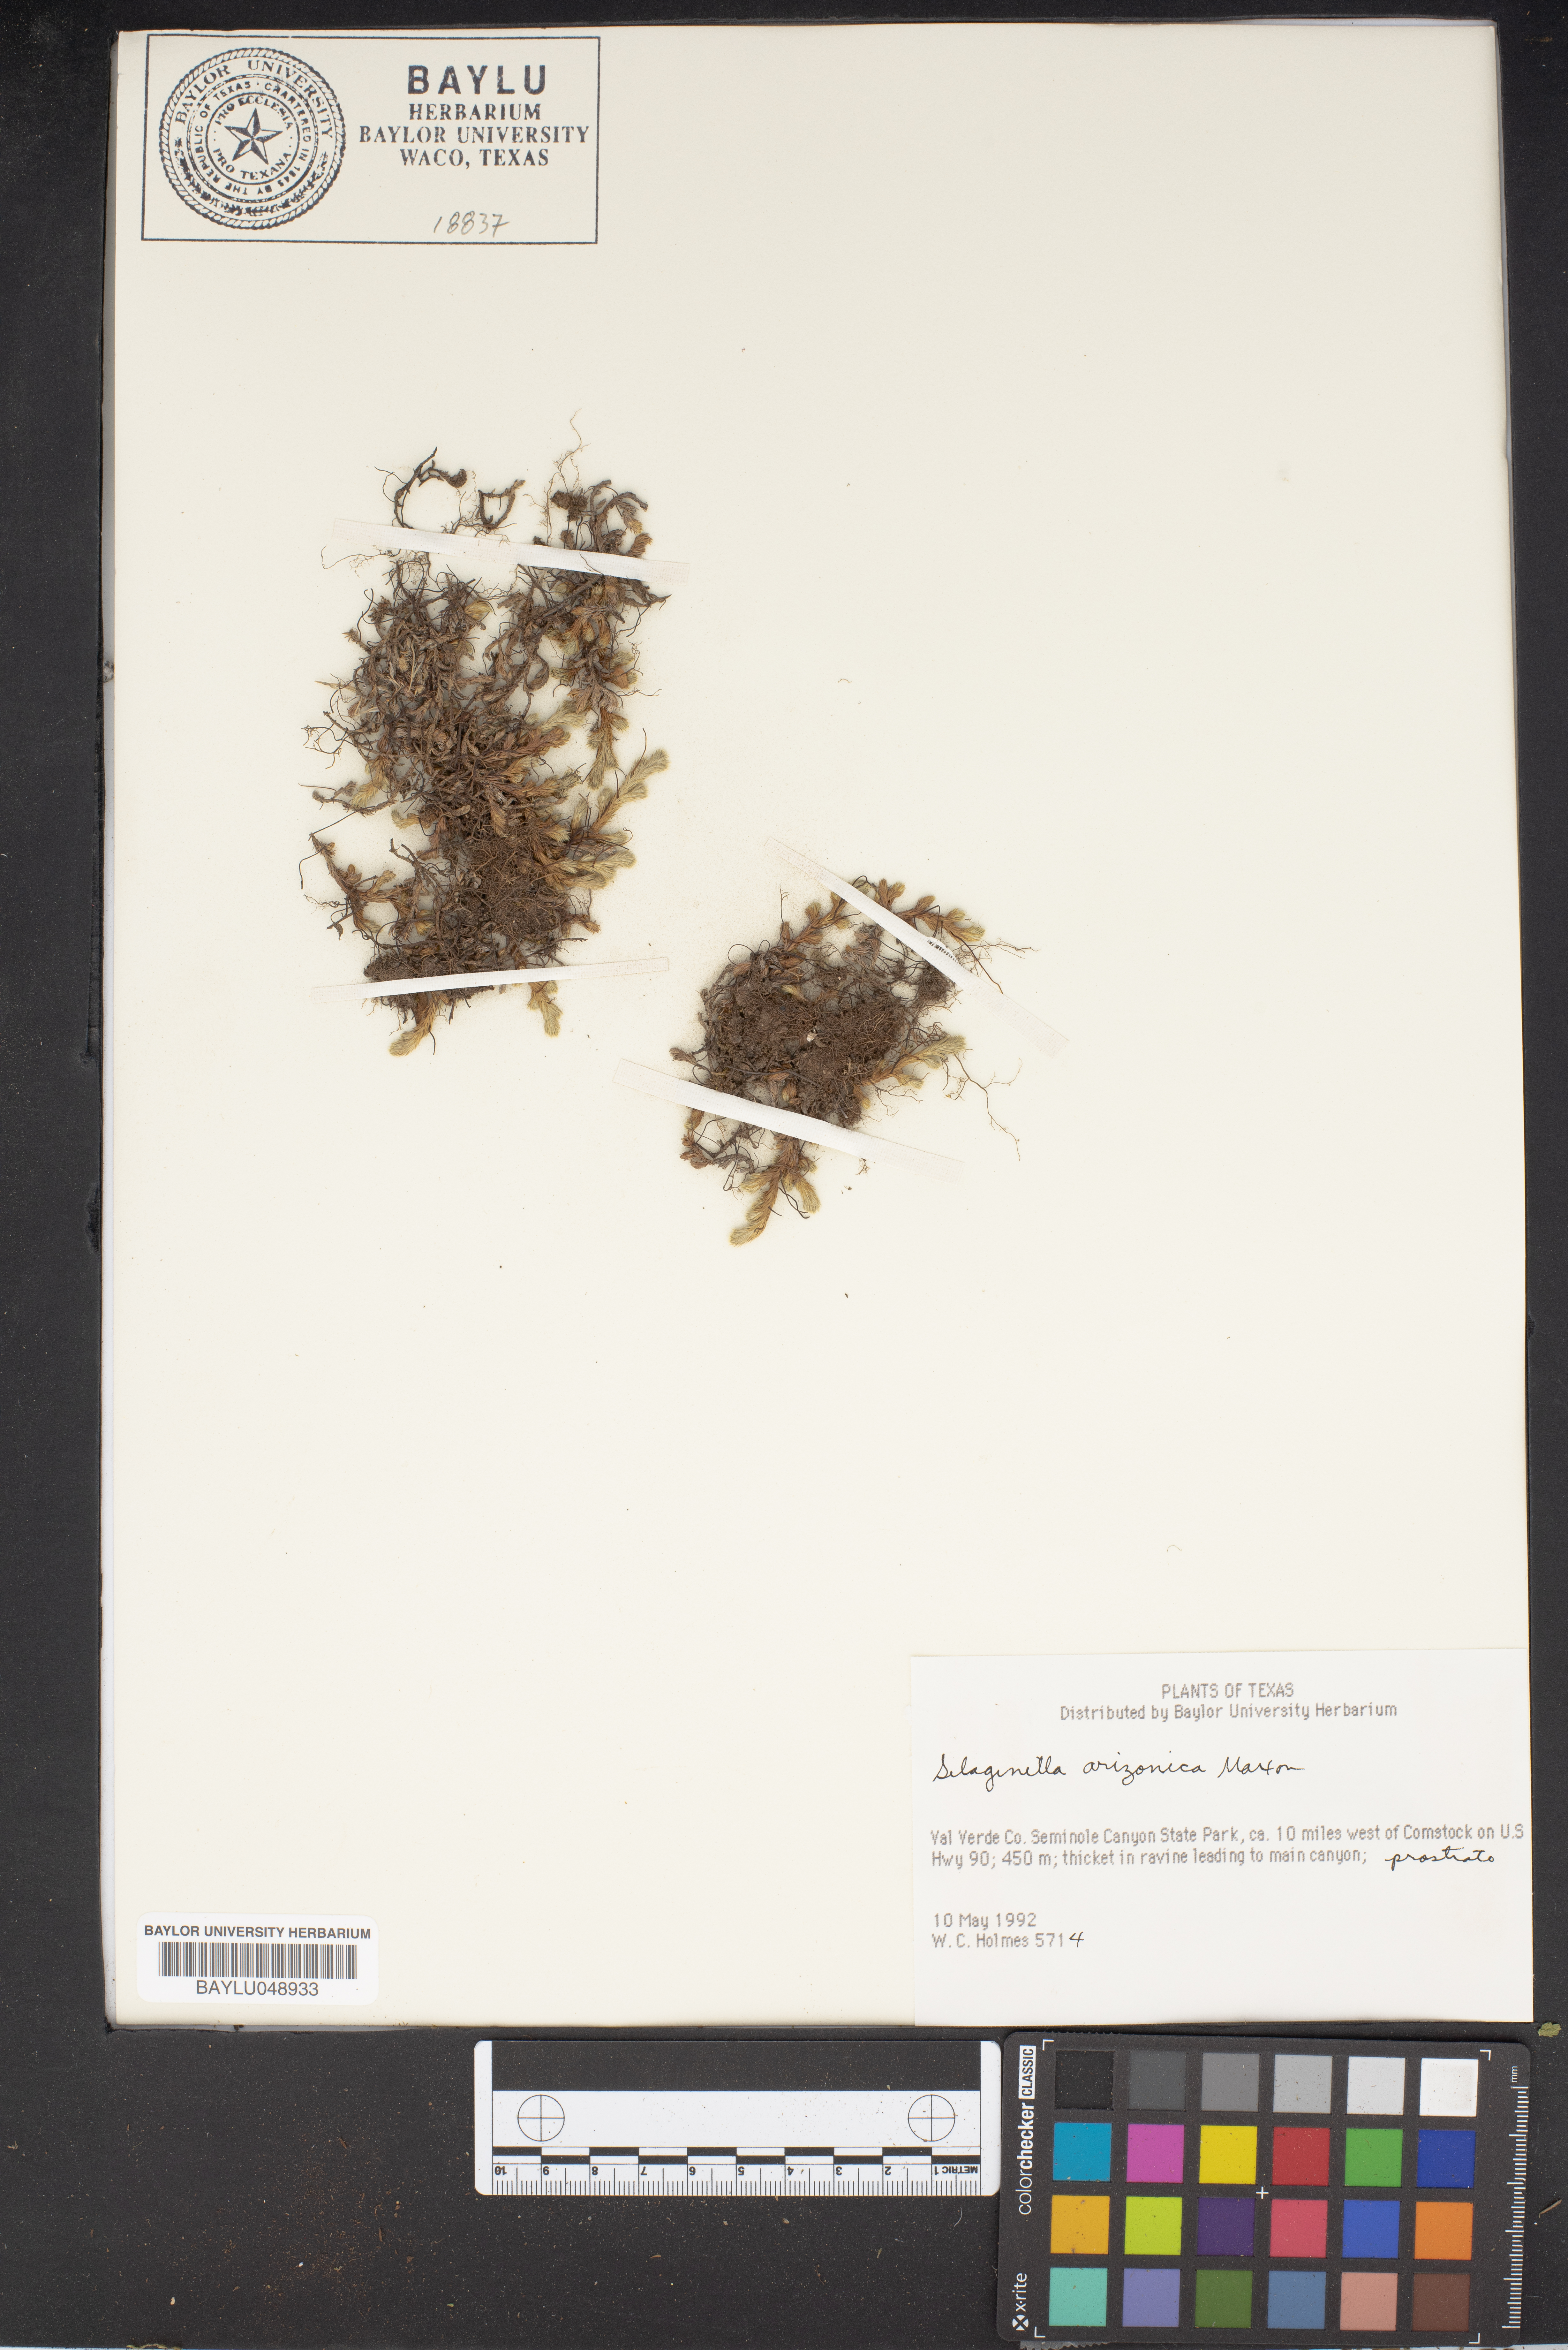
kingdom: Plantae
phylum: Tracheophyta
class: Lycopodiopsida
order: Selaginellales
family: Selaginellaceae
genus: Selaginella
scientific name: Selaginella arizonica
